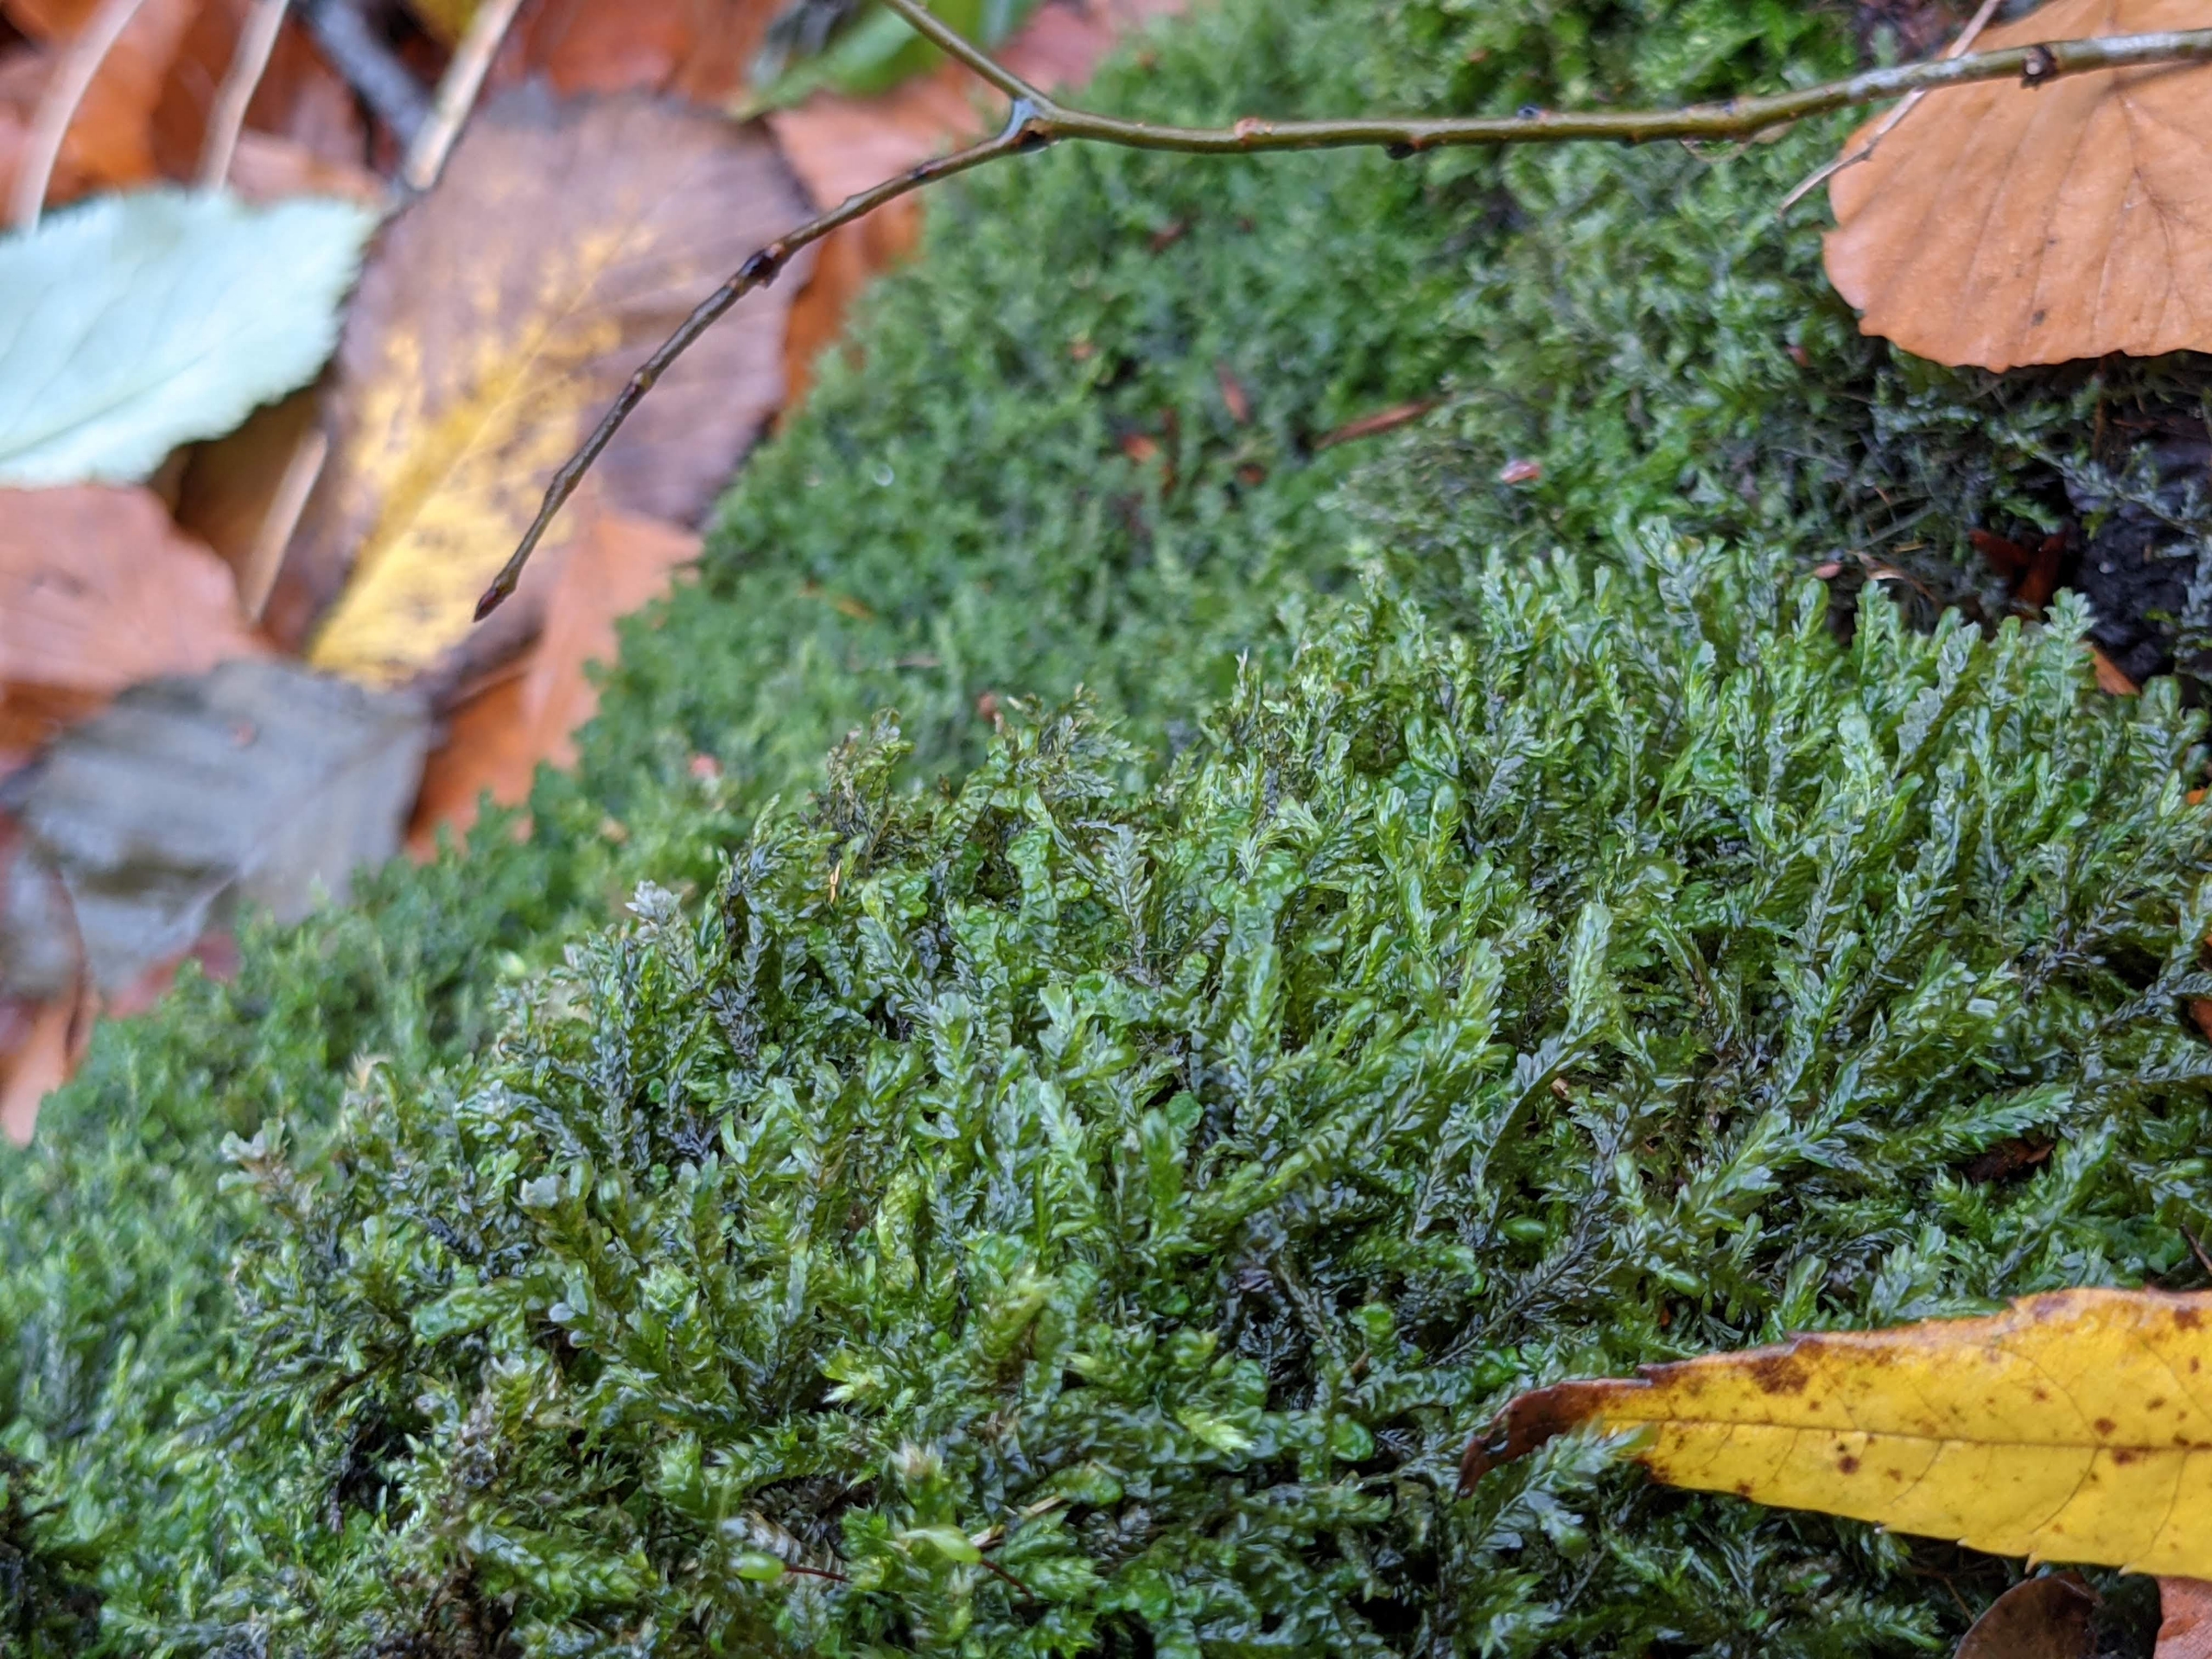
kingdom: Plantae
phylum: Bryophyta
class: Bryopsida
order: Hypnales
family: Neckeraceae
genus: Homalia
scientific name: Homalia trichomanoides
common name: Skov-tungemos
